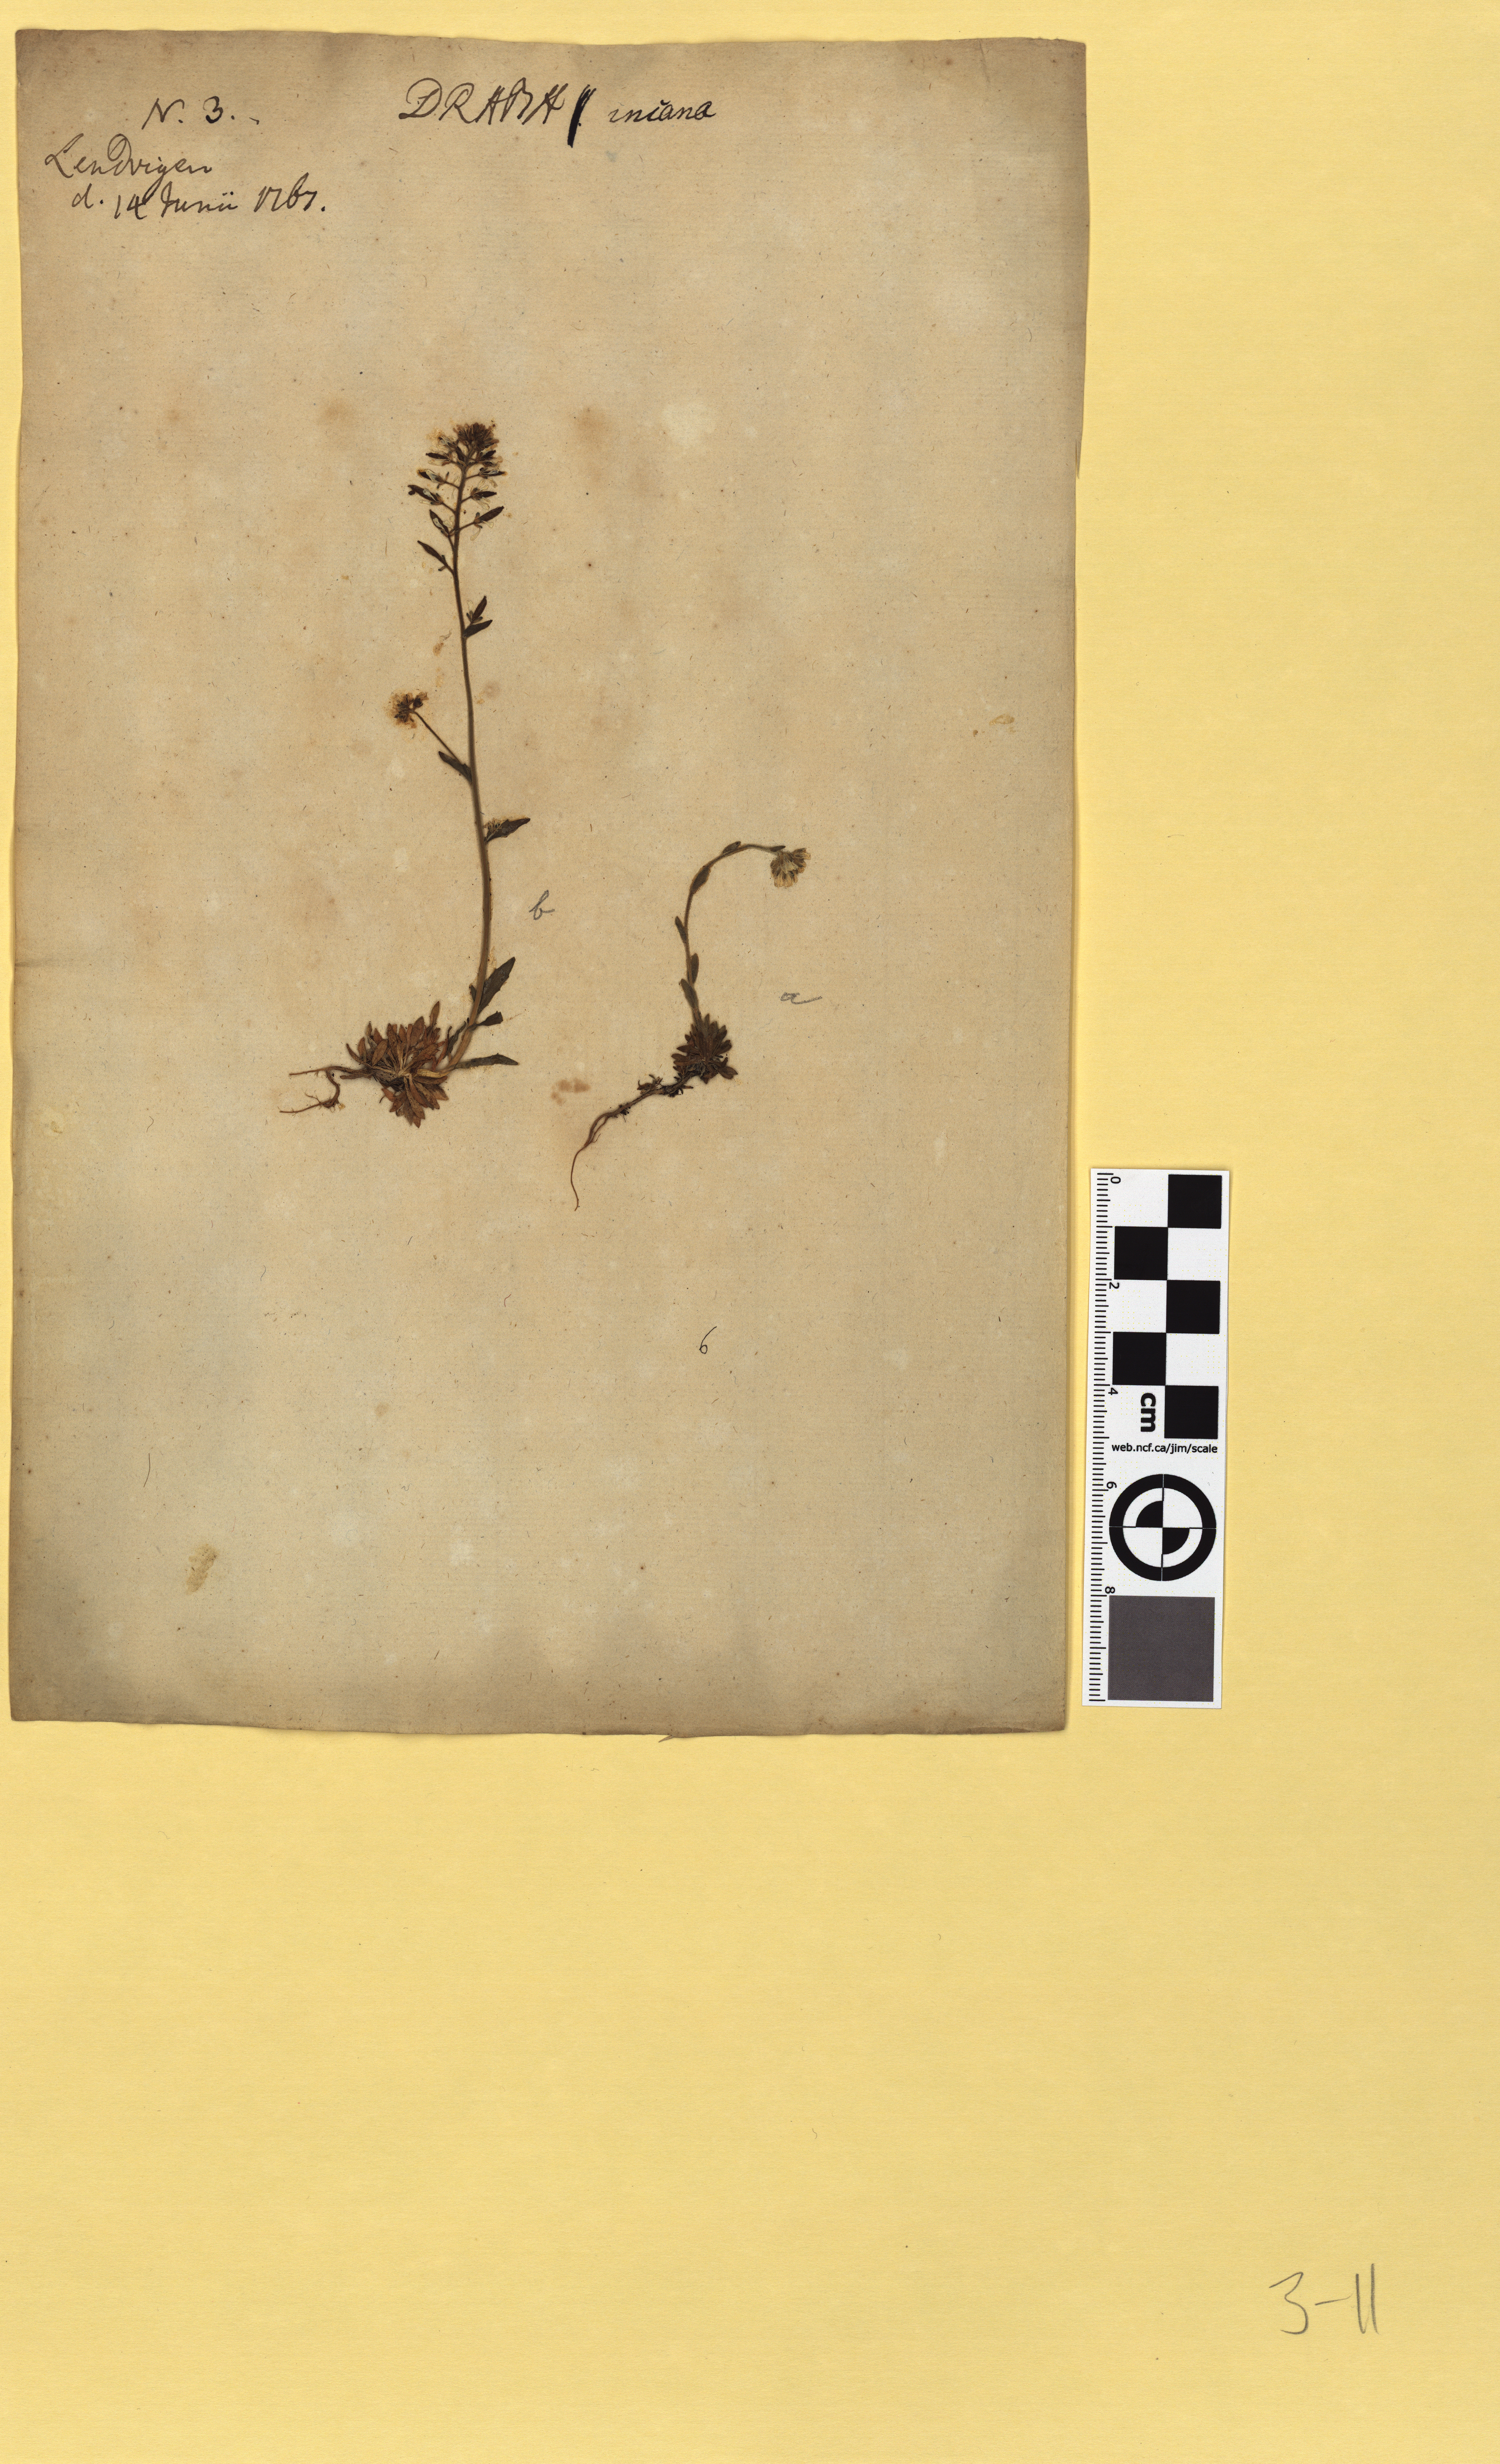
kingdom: Plantae
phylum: Tracheophyta
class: Magnoliopsida
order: Brassicales
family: Brassicaceae
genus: Draba
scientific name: Draba incana
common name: Hoary whitlow-grass
